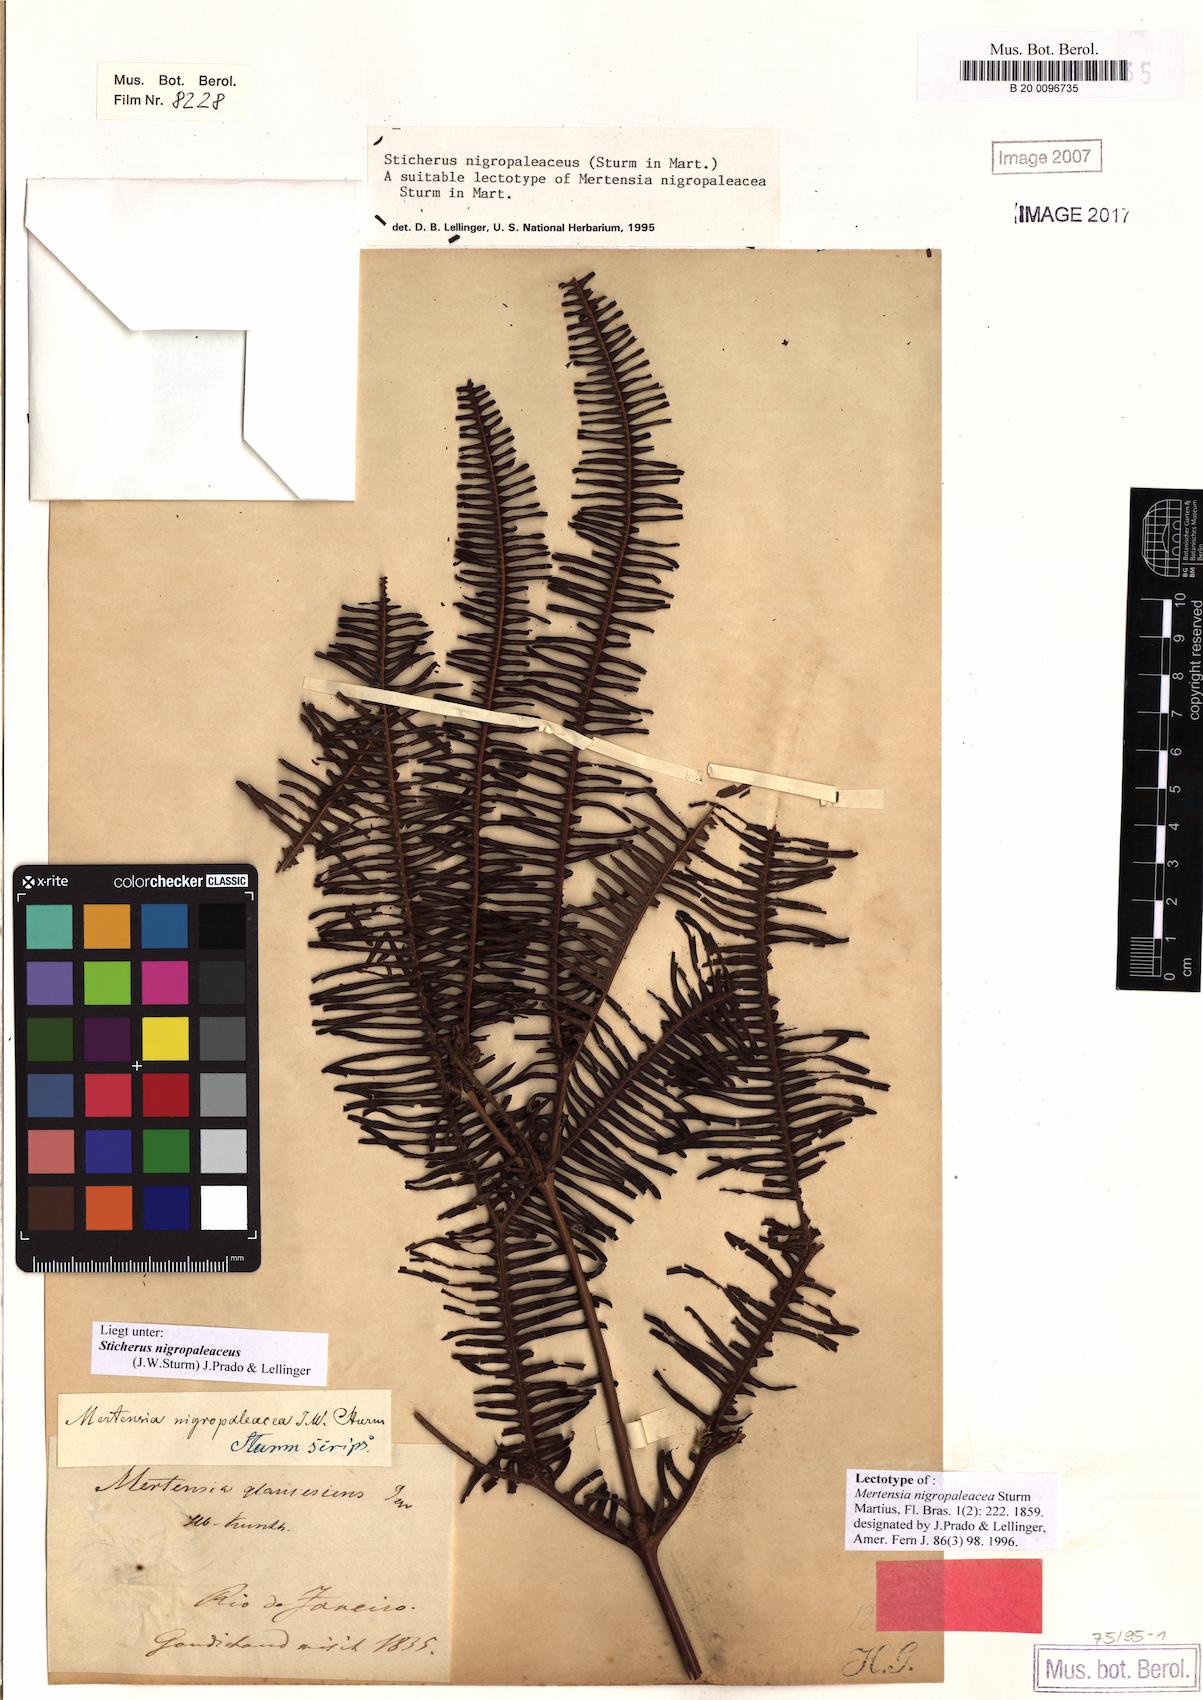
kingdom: Plantae
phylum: Tracheophyta
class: Polypodiopsida
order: Gleicheniales
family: Gleicheniaceae
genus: Sticherus
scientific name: Sticherus nigropaleaceus
